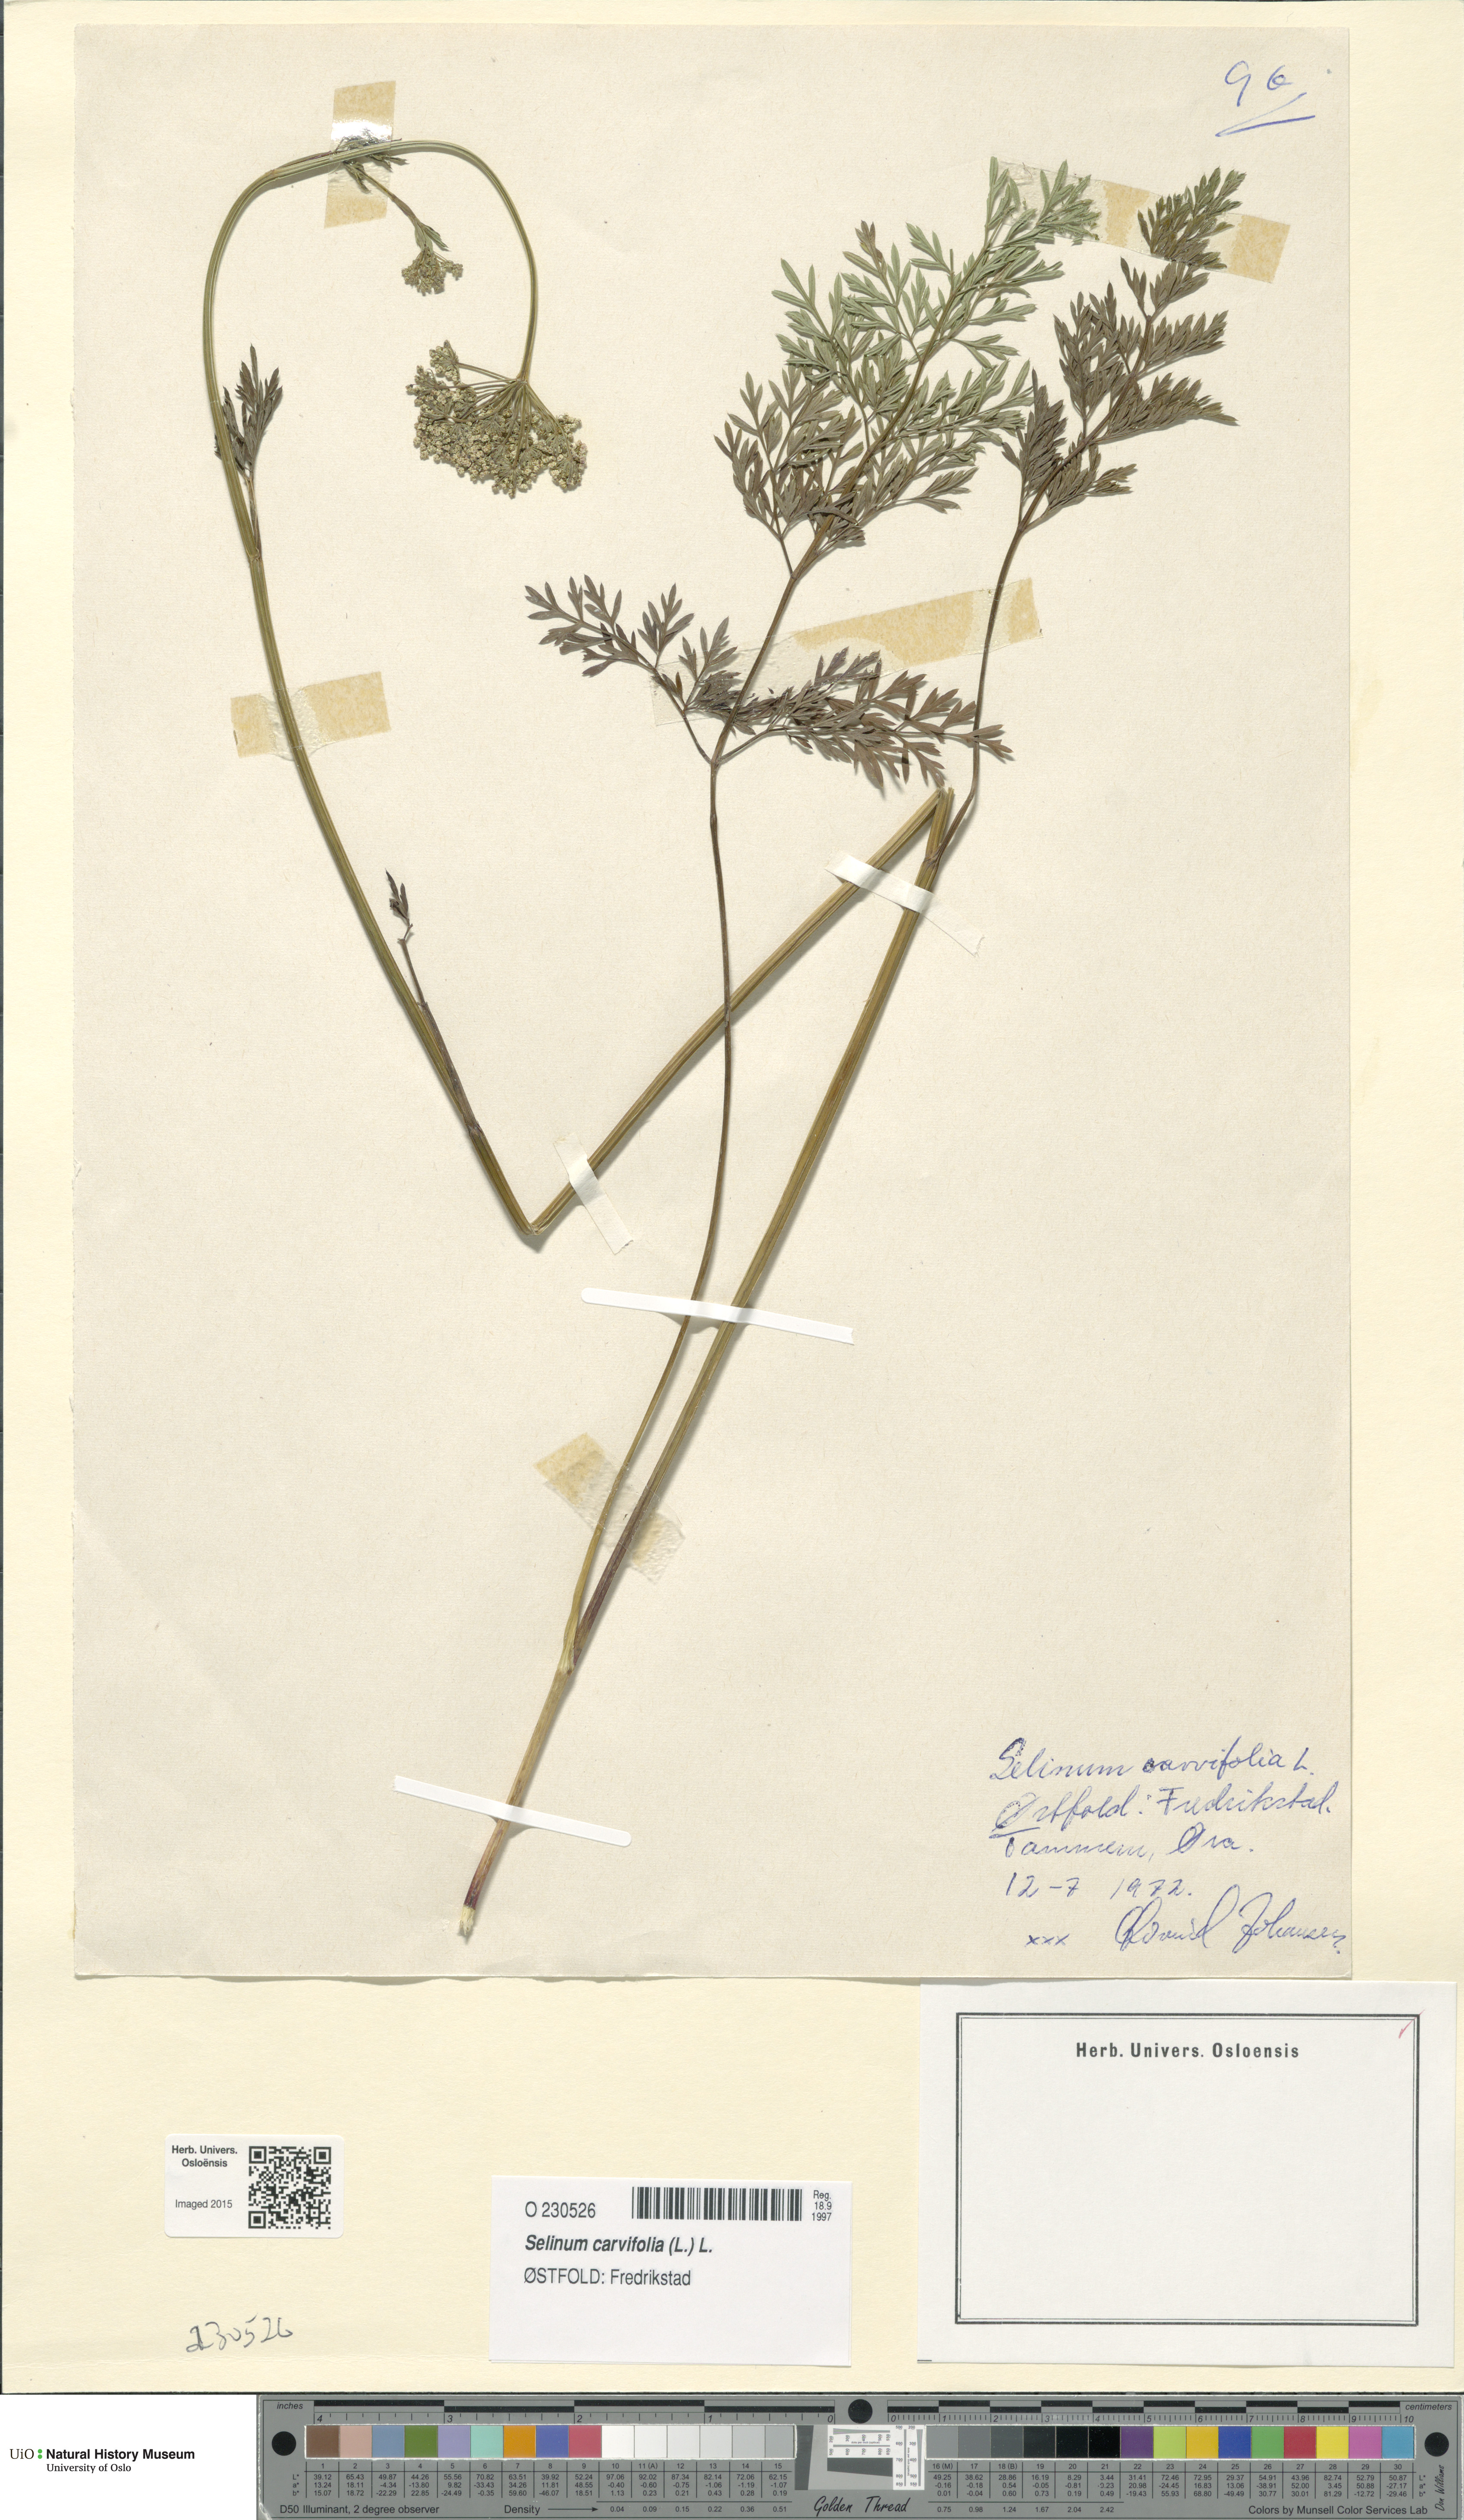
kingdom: Plantae
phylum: Tracheophyta
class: Magnoliopsida
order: Apiales
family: Apiaceae
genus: Selinum
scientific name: Selinum carvifolia
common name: Cambridge milk-parsley
